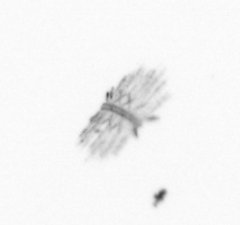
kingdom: Chromista
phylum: Ochrophyta
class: Bacillariophyceae
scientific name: Bacillariophyceae
